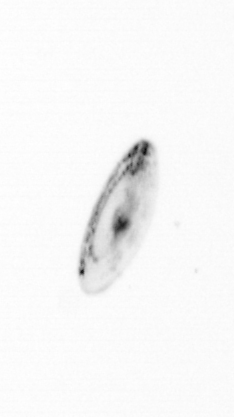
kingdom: Chromista
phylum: Myzozoa
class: Dinophyceae
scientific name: Dinophyceae
